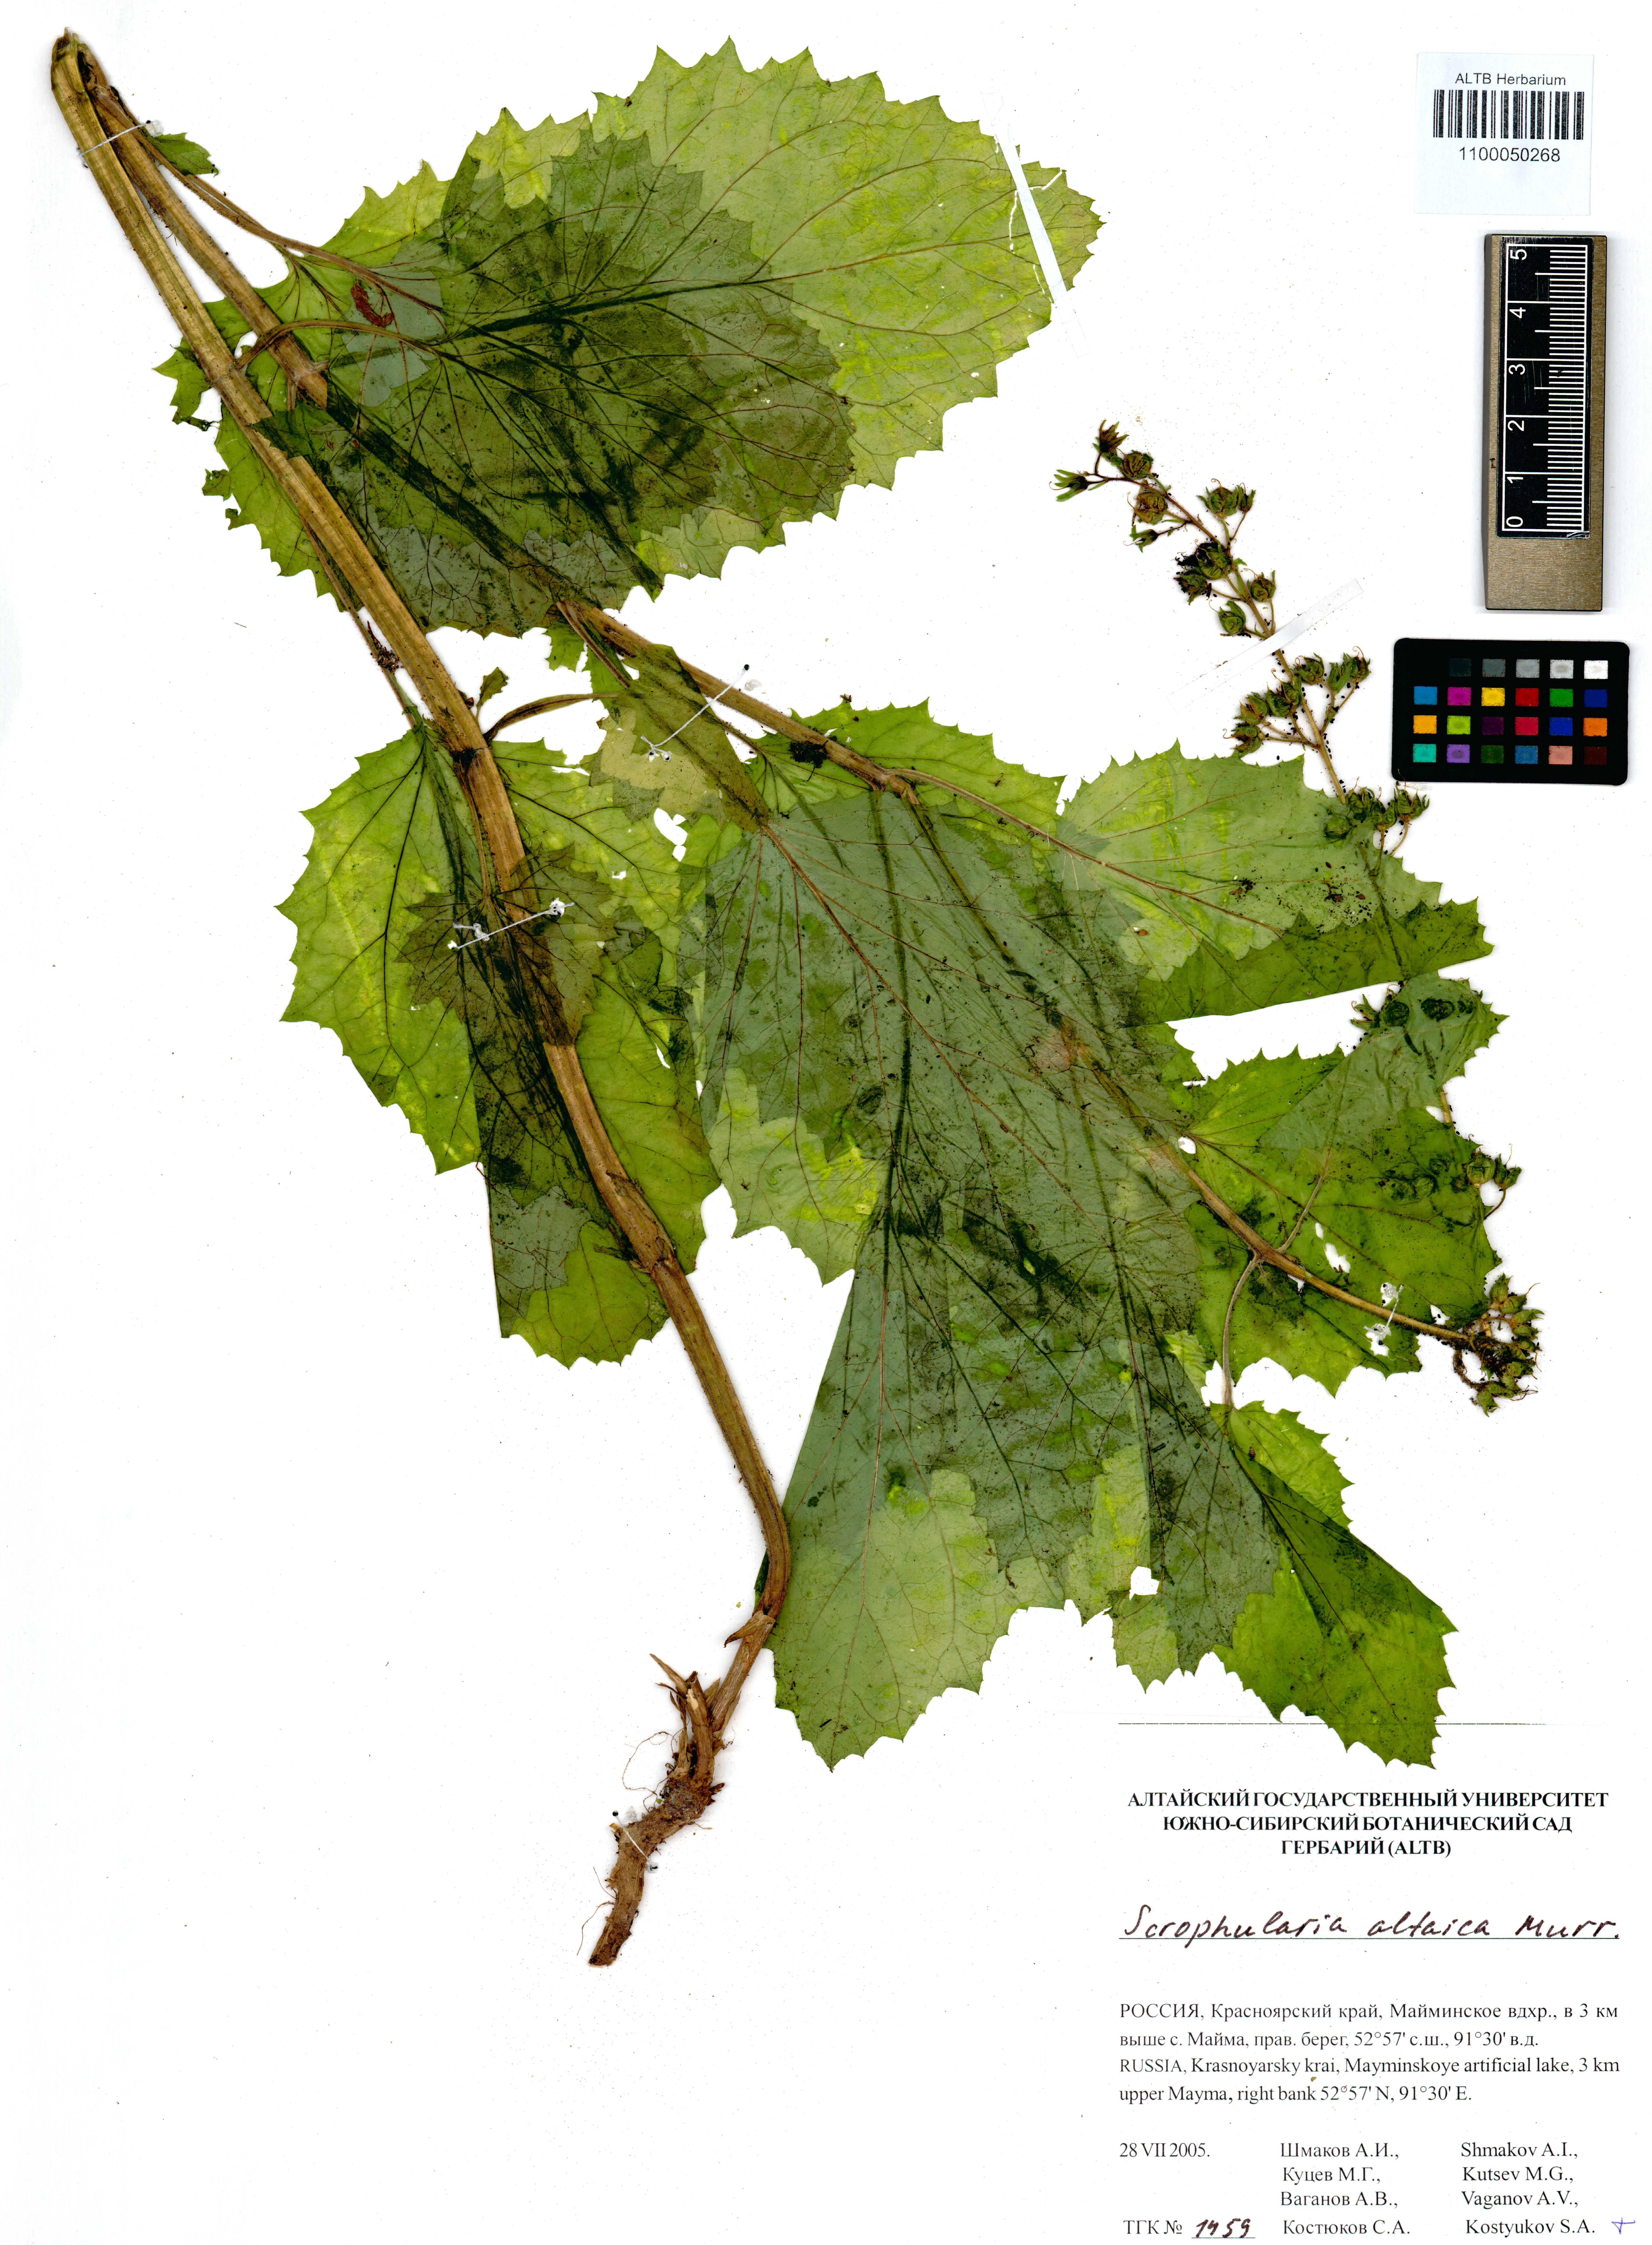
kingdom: Plantae
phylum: Tracheophyta
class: Magnoliopsida
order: Lamiales
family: Scrophulariaceae
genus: Scrophularia
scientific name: Scrophularia altaica
